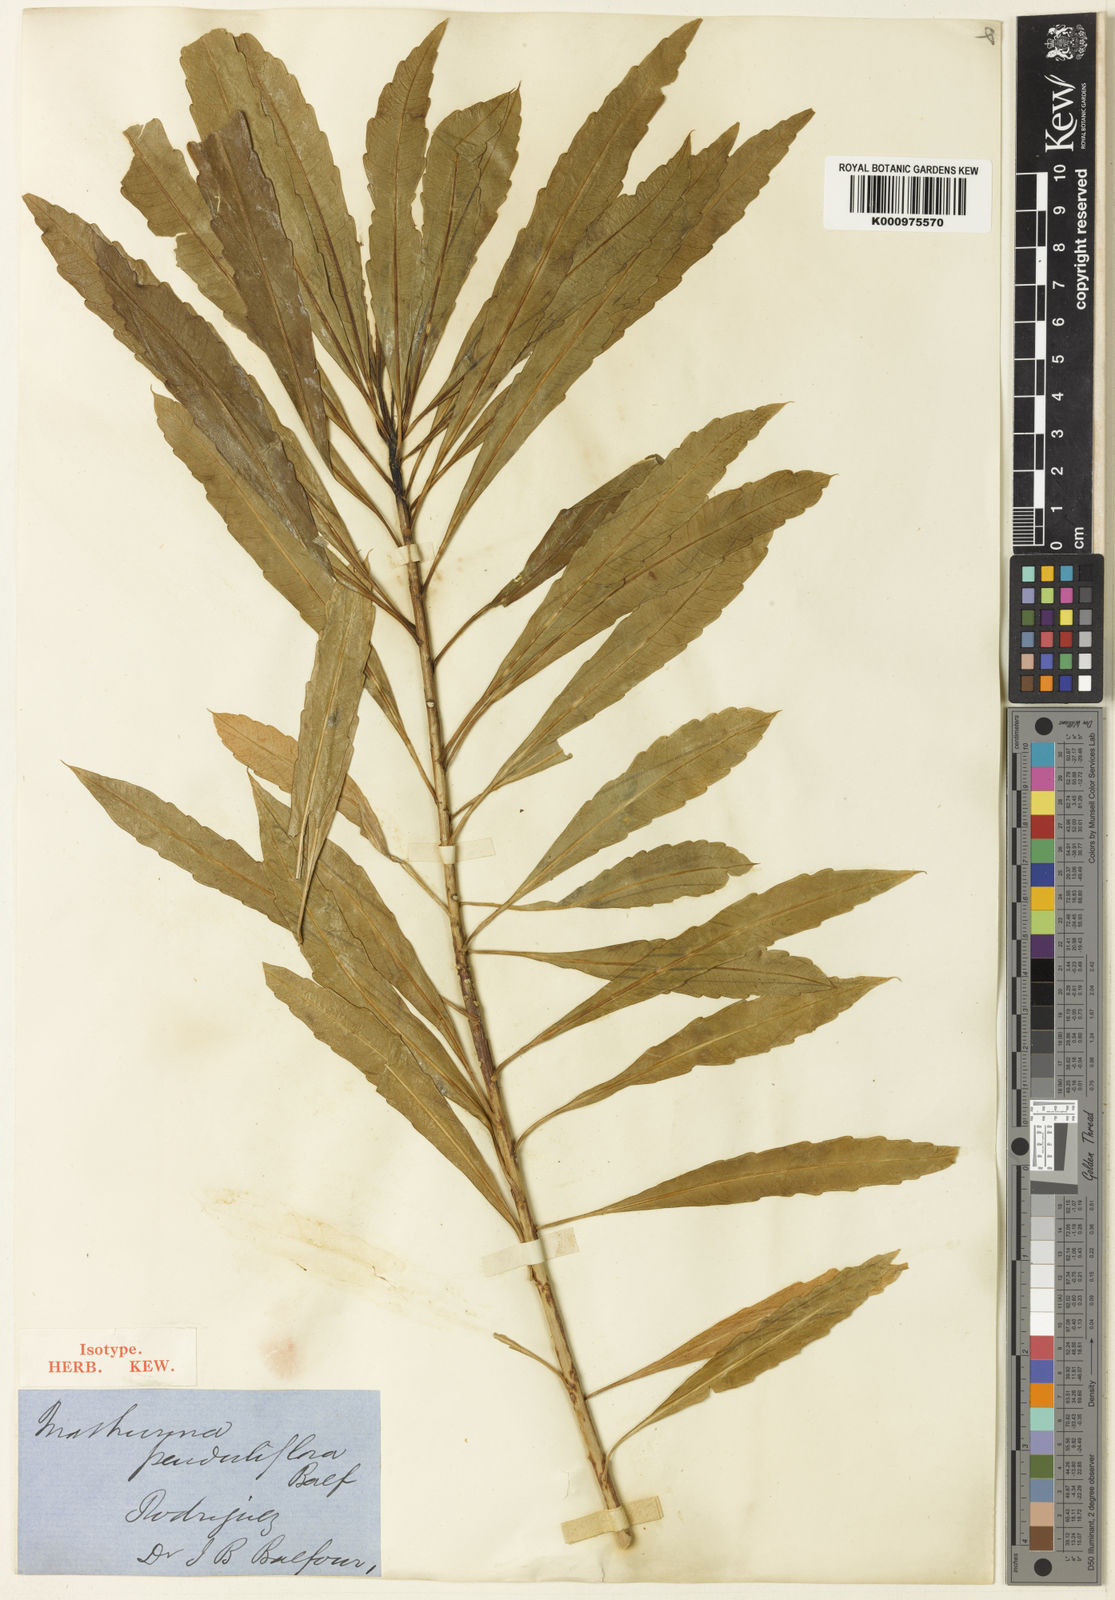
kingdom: Plantae
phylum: Tracheophyta
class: Magnoliopsida
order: Malpighiales
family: Turneraceae
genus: Mathurina
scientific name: Mathurina penduliflora
